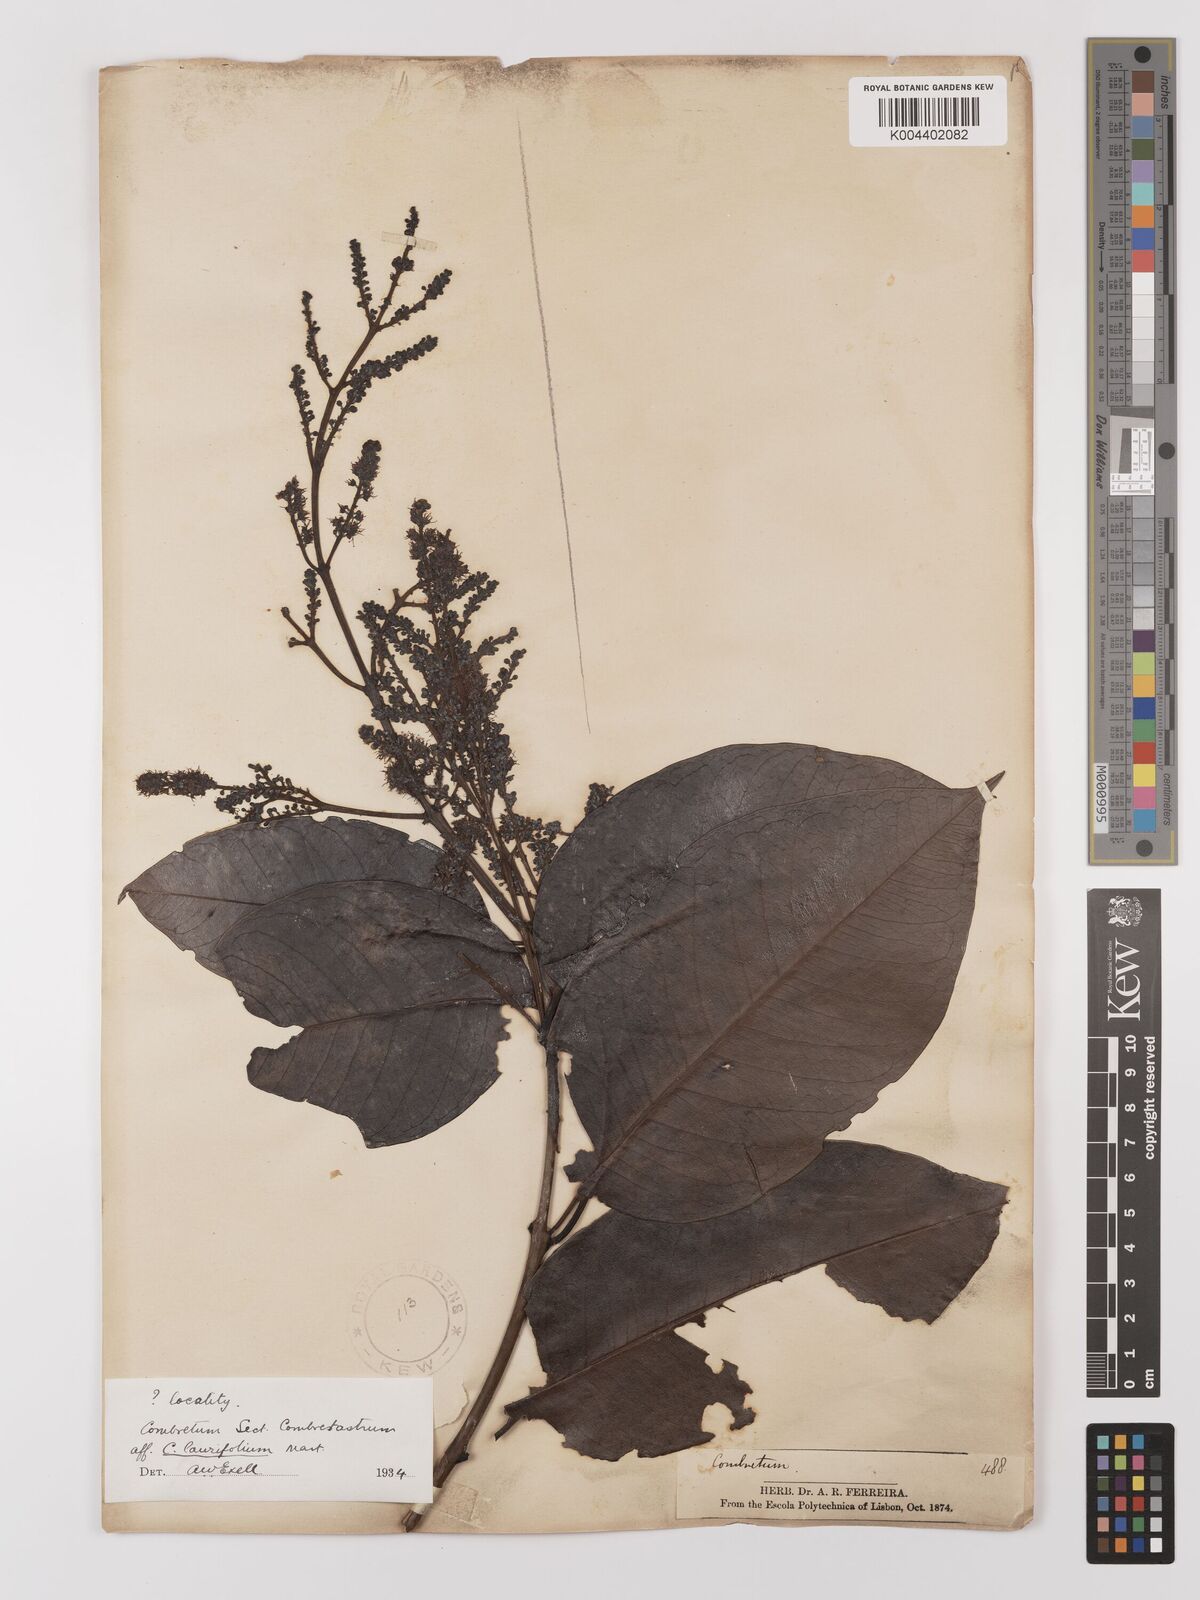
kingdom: Plantae
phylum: Tracheophyta
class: Magnoliopsida
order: Myrtales
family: Combretaceae
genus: Combretum
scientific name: Combretum
